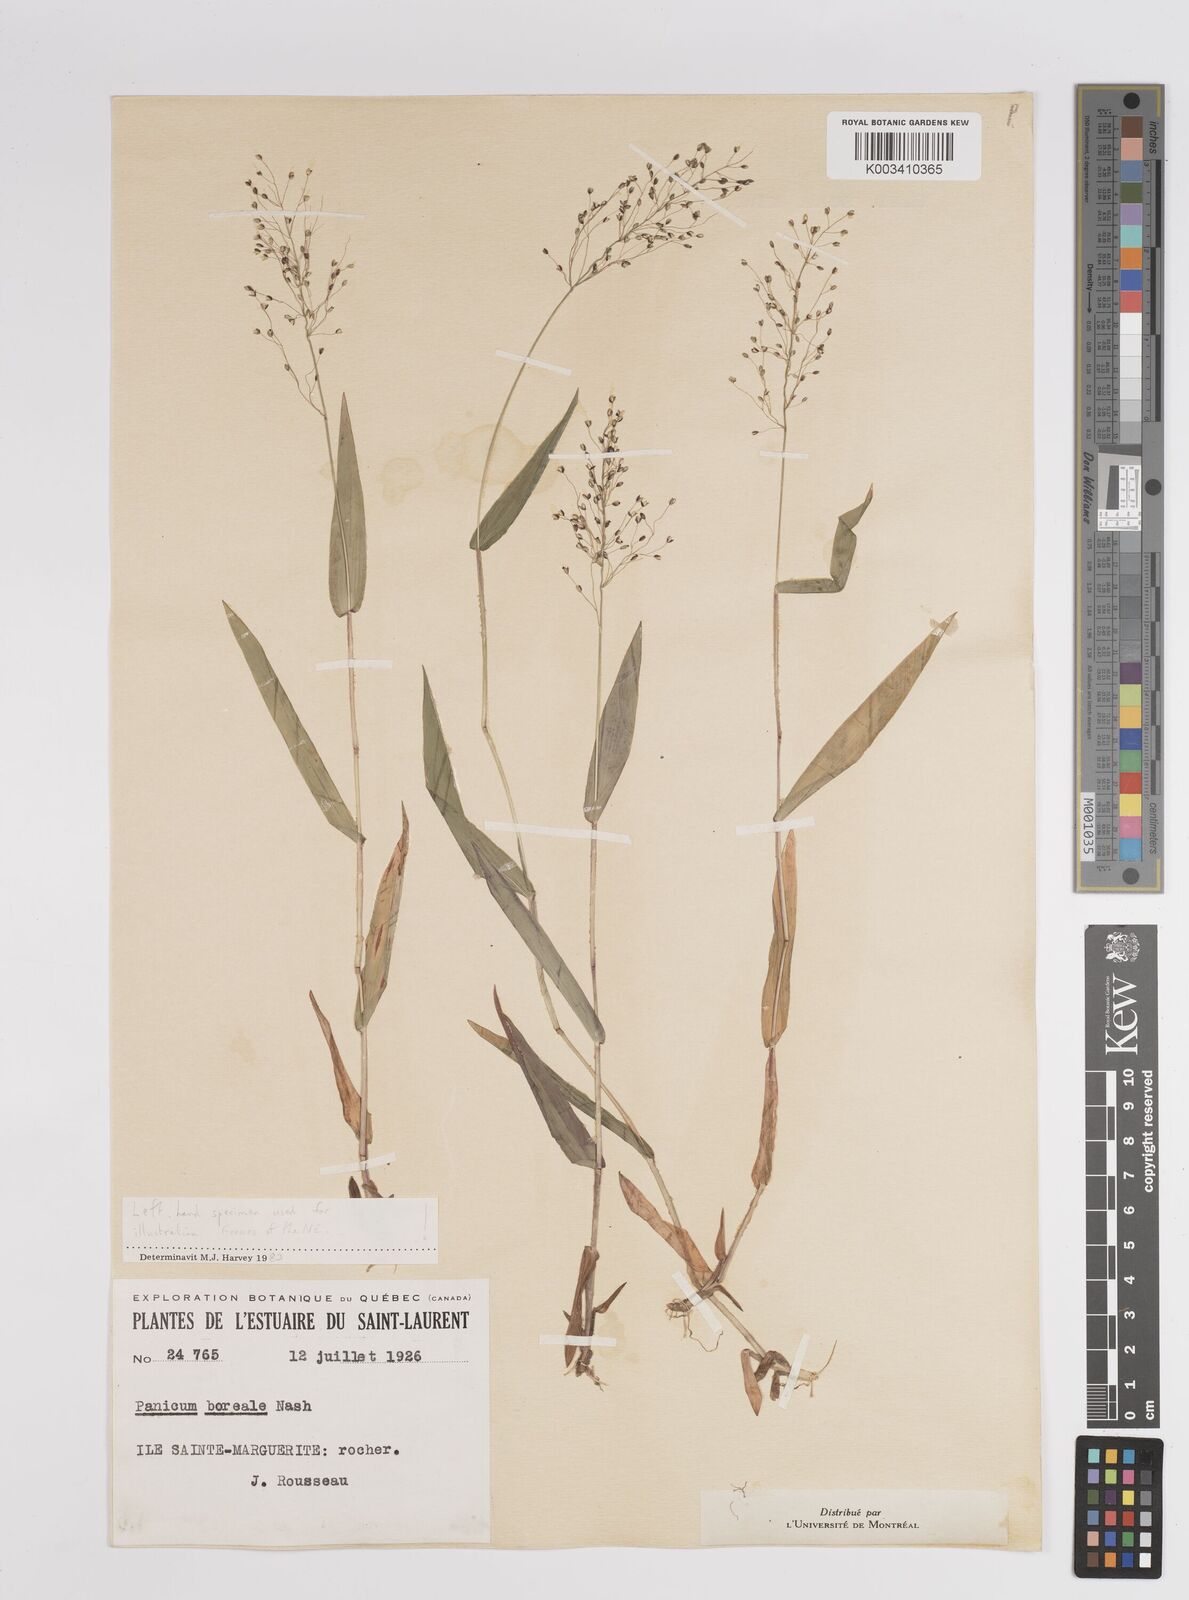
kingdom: Plantae
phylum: Tracheophyta
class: Liliopsida
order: Poales
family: Poaceae
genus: Dichanthelium
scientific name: Dichanthelium boreale
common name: Northern panicgrass
